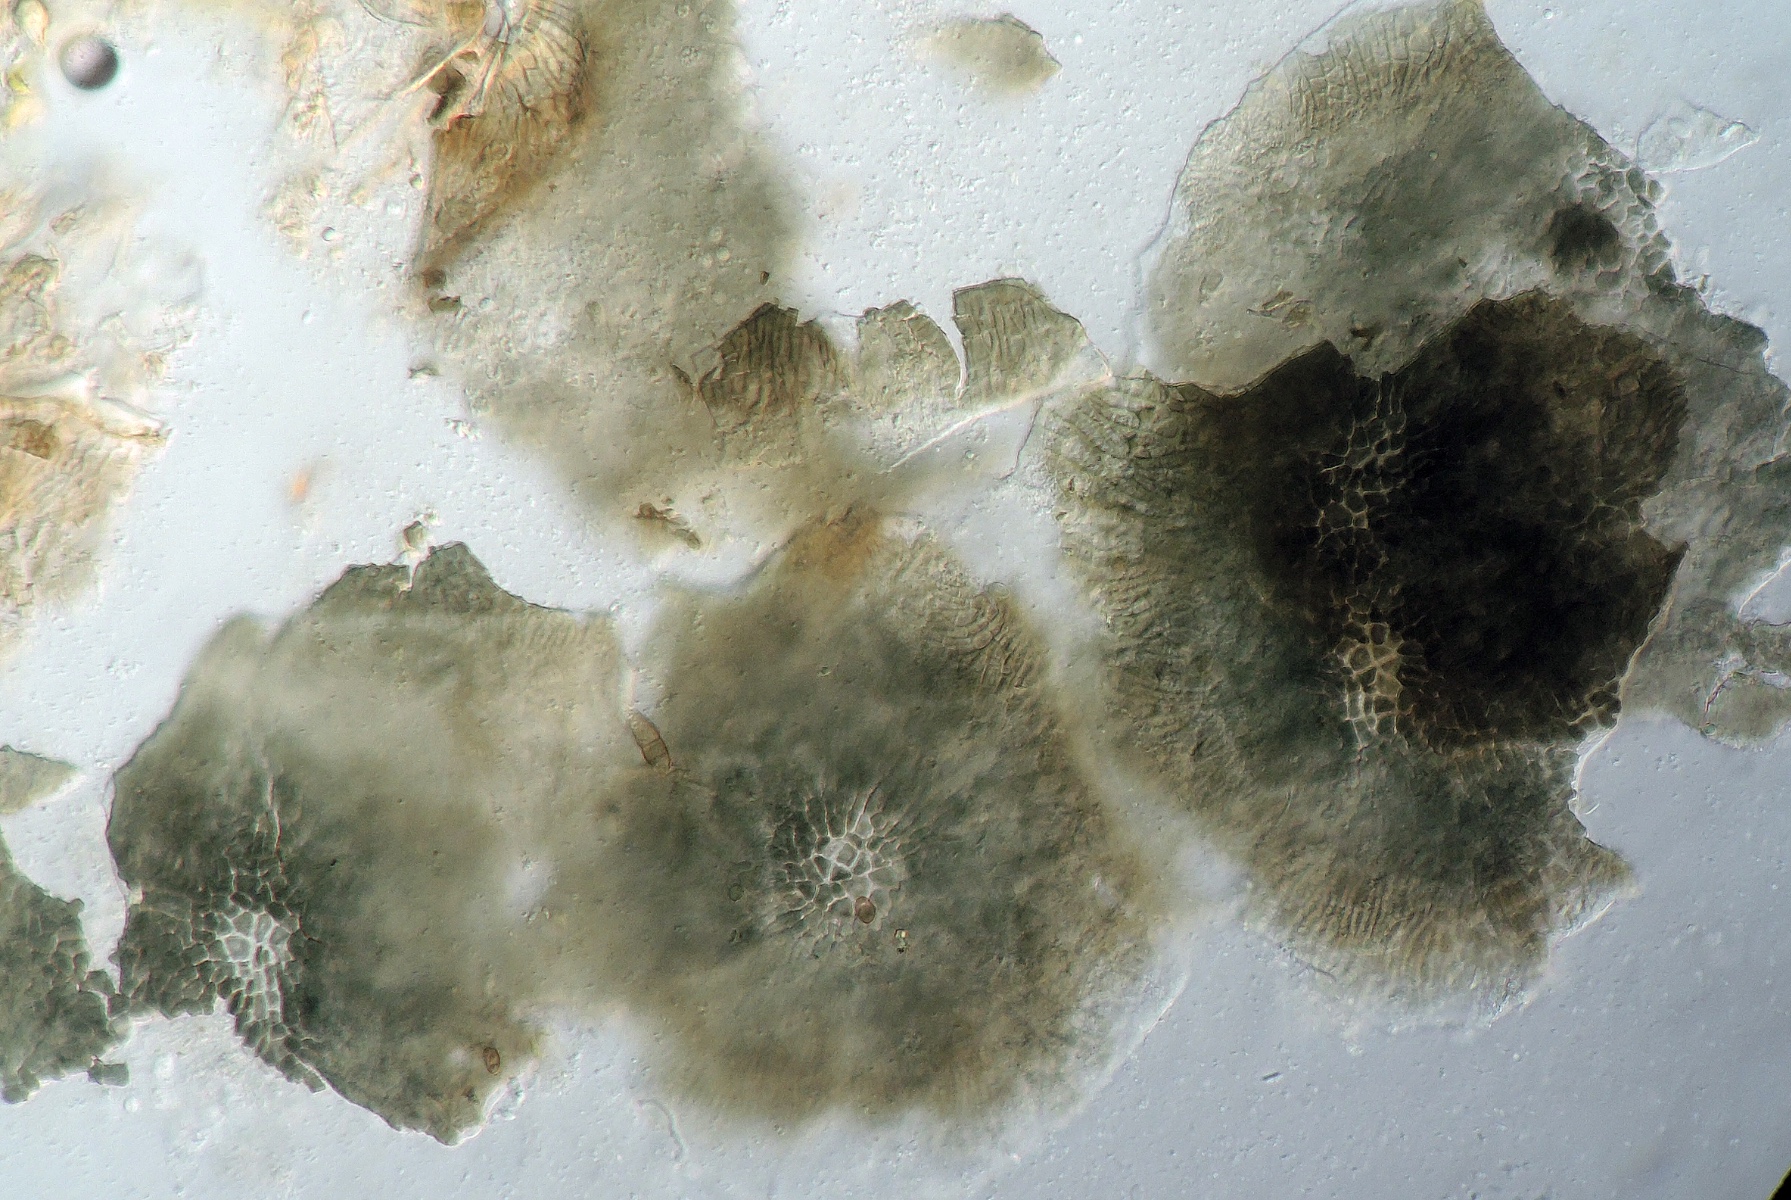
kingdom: Fungi
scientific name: Fungi
